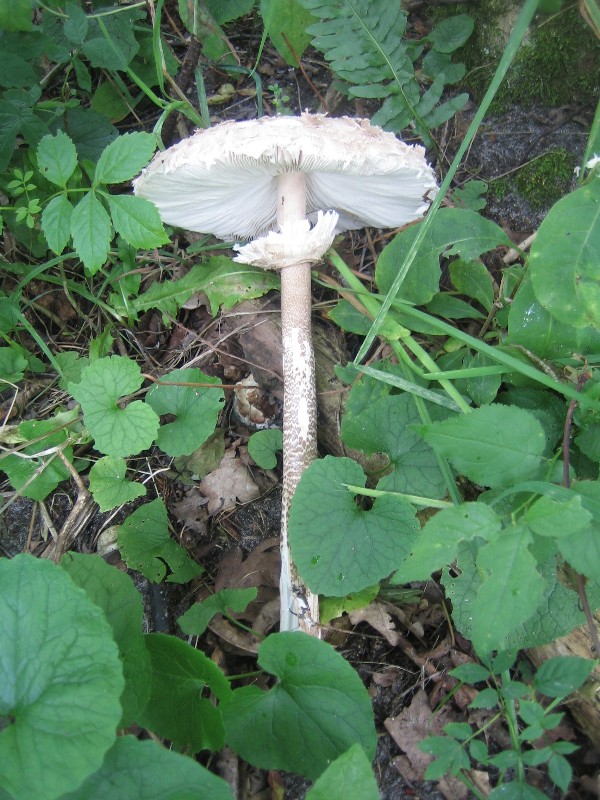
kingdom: Fungi
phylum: Basidiomycota
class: Agaricomycetes
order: Agaricales
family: Agaricaceae
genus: Macrolepiota
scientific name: Macrolepiota procera
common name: stor kæmpeparasolhat
